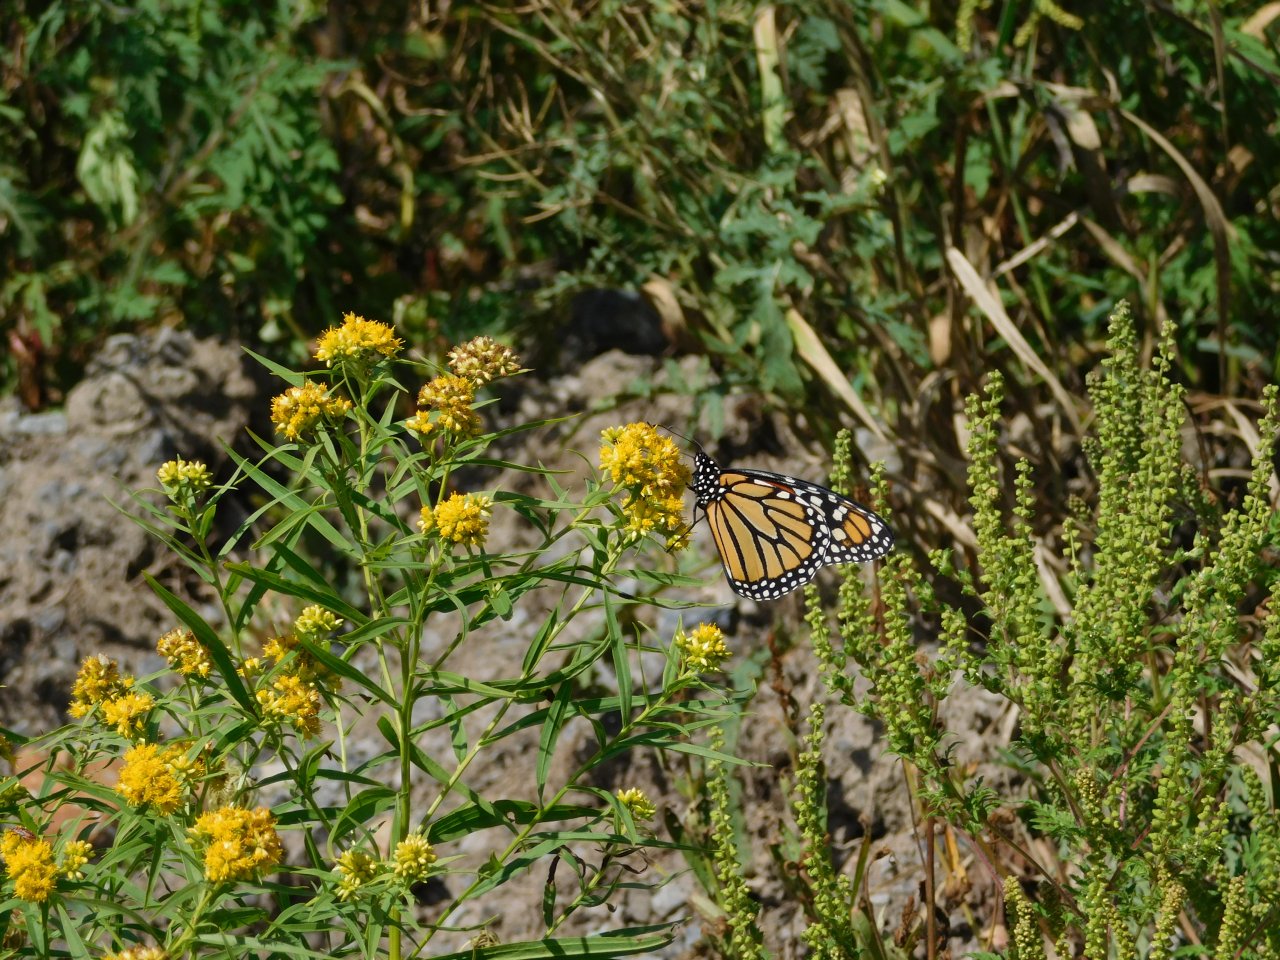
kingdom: Animalia
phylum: Arthropoda
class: Insecta
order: Lepidoptera
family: Nymphalidae
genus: Danaus
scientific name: Danaus plexippus
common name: Monarch
